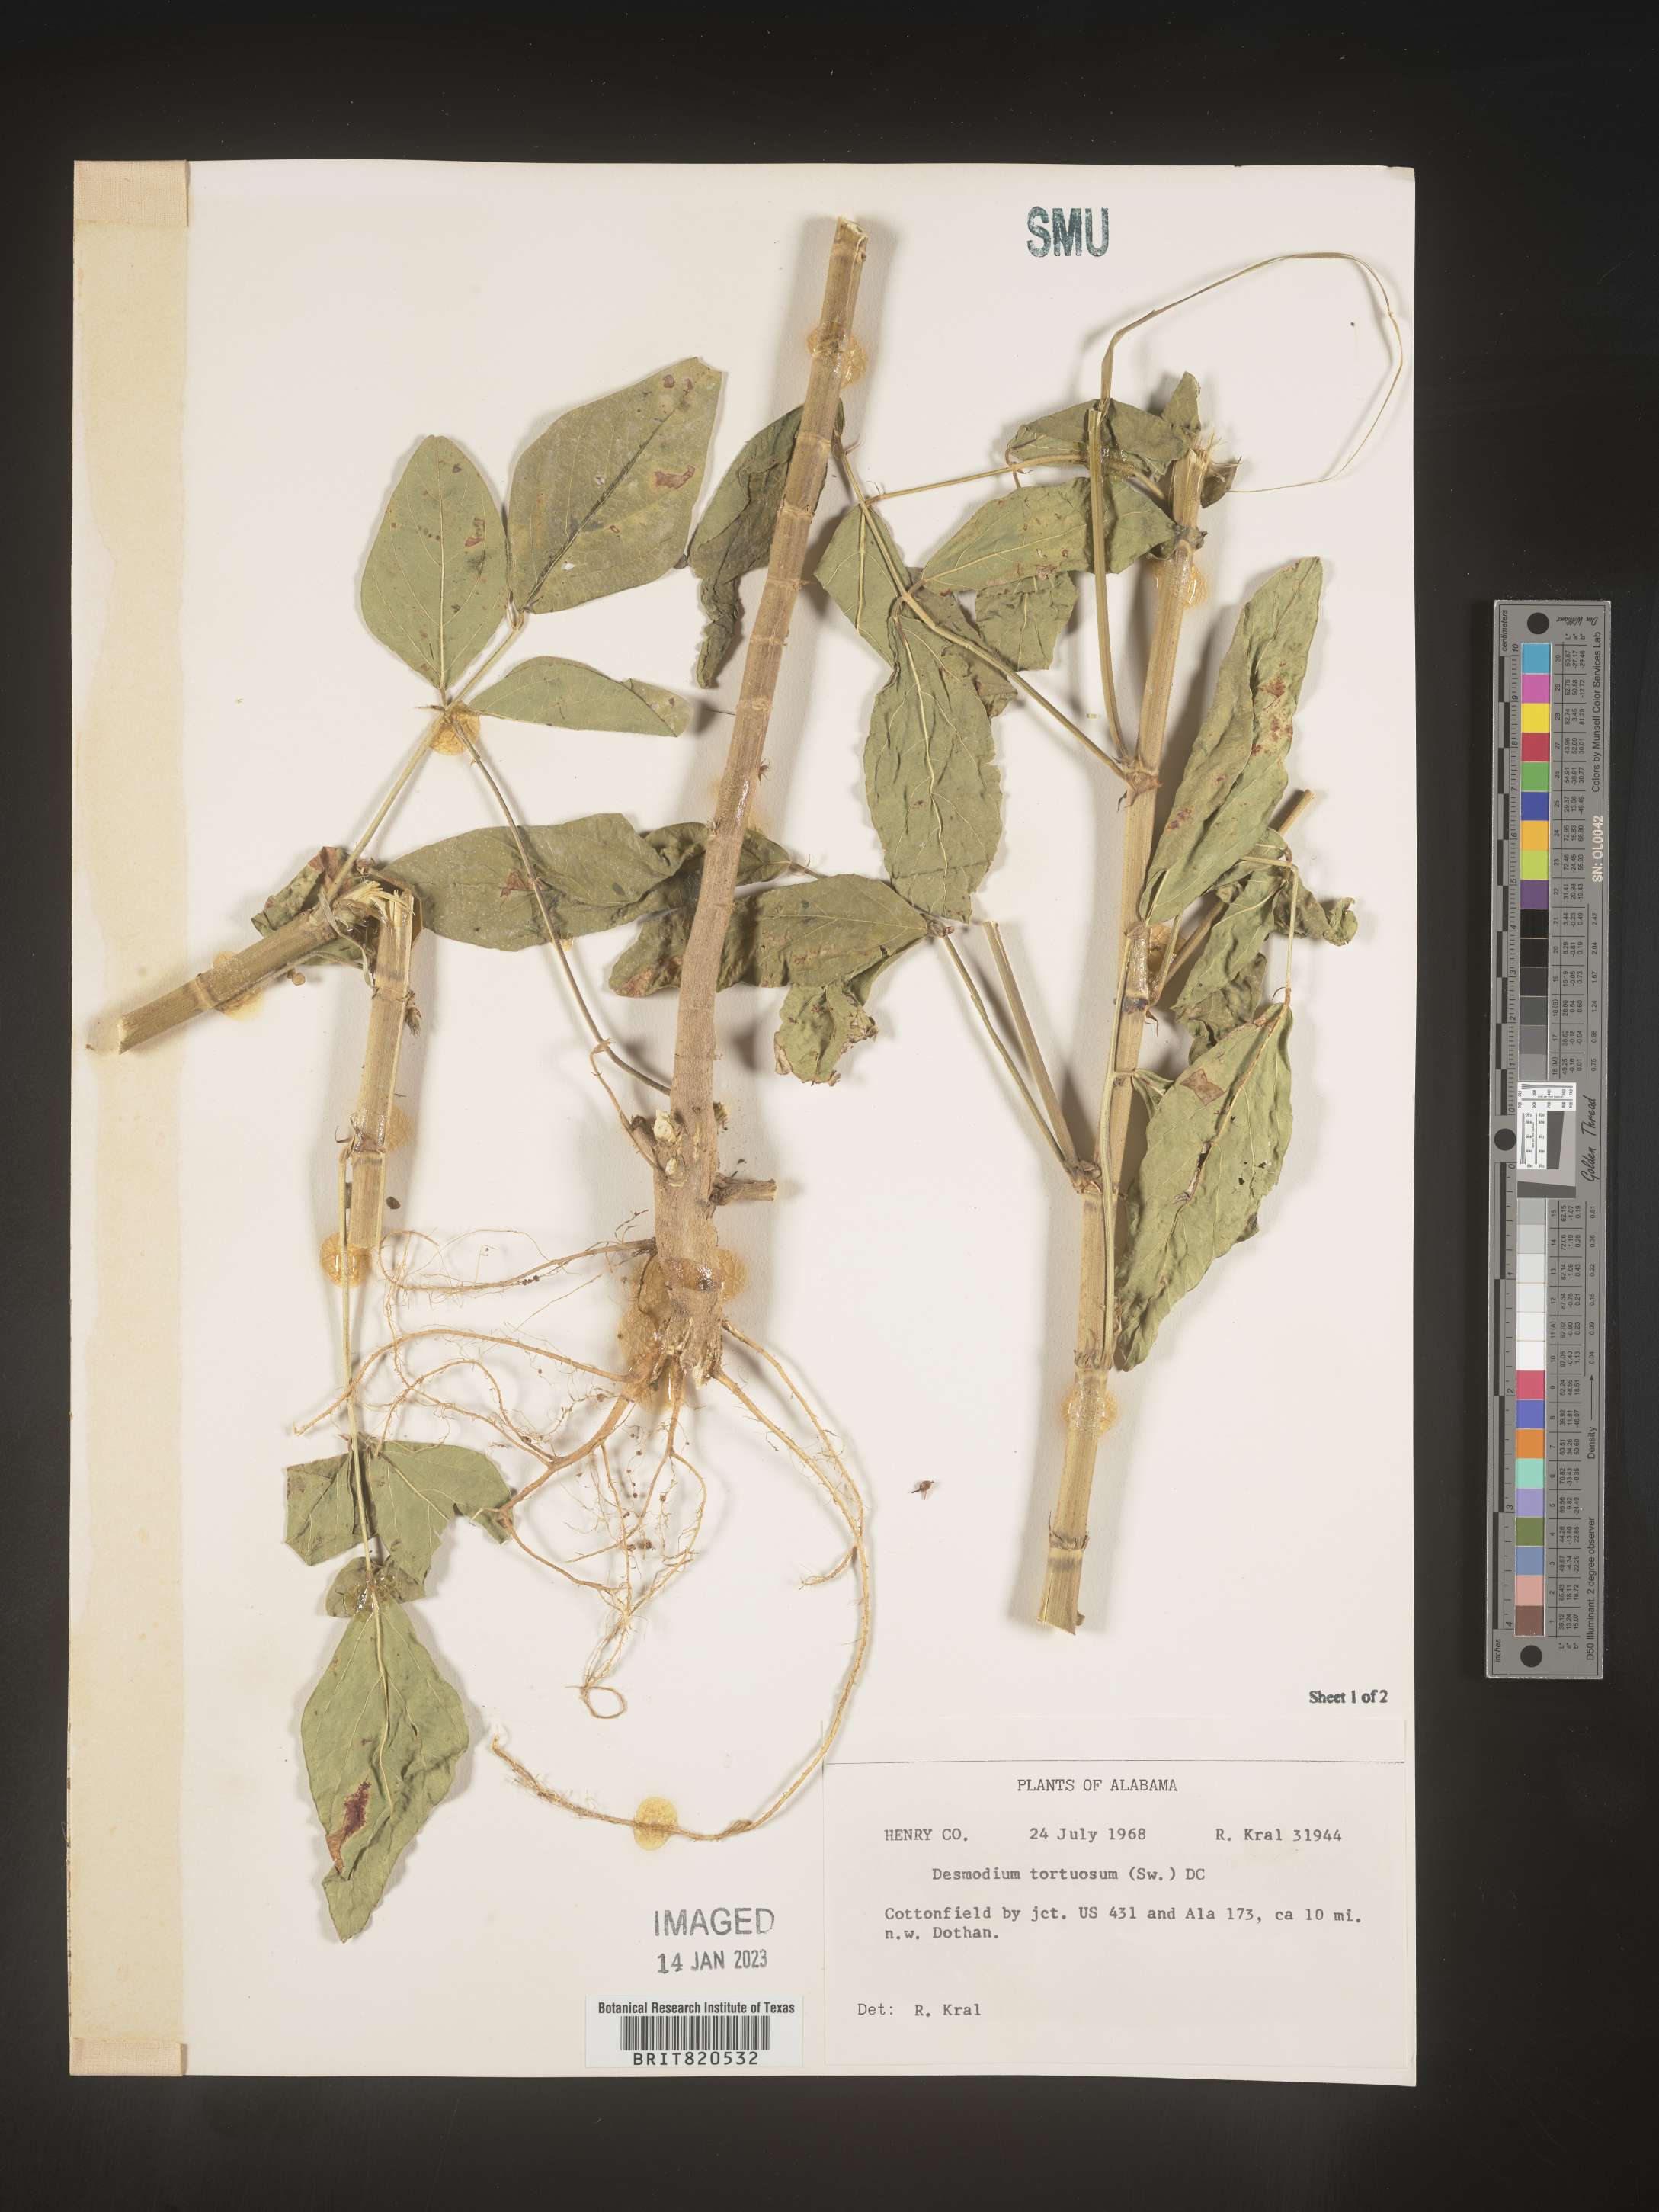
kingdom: Plantae
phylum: Tracheophyta
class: Magnoliopsida
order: Fabales
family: Fabaceae
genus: Desmodium
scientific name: Desmodium tortuosum
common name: Dixie ticktrefoil
